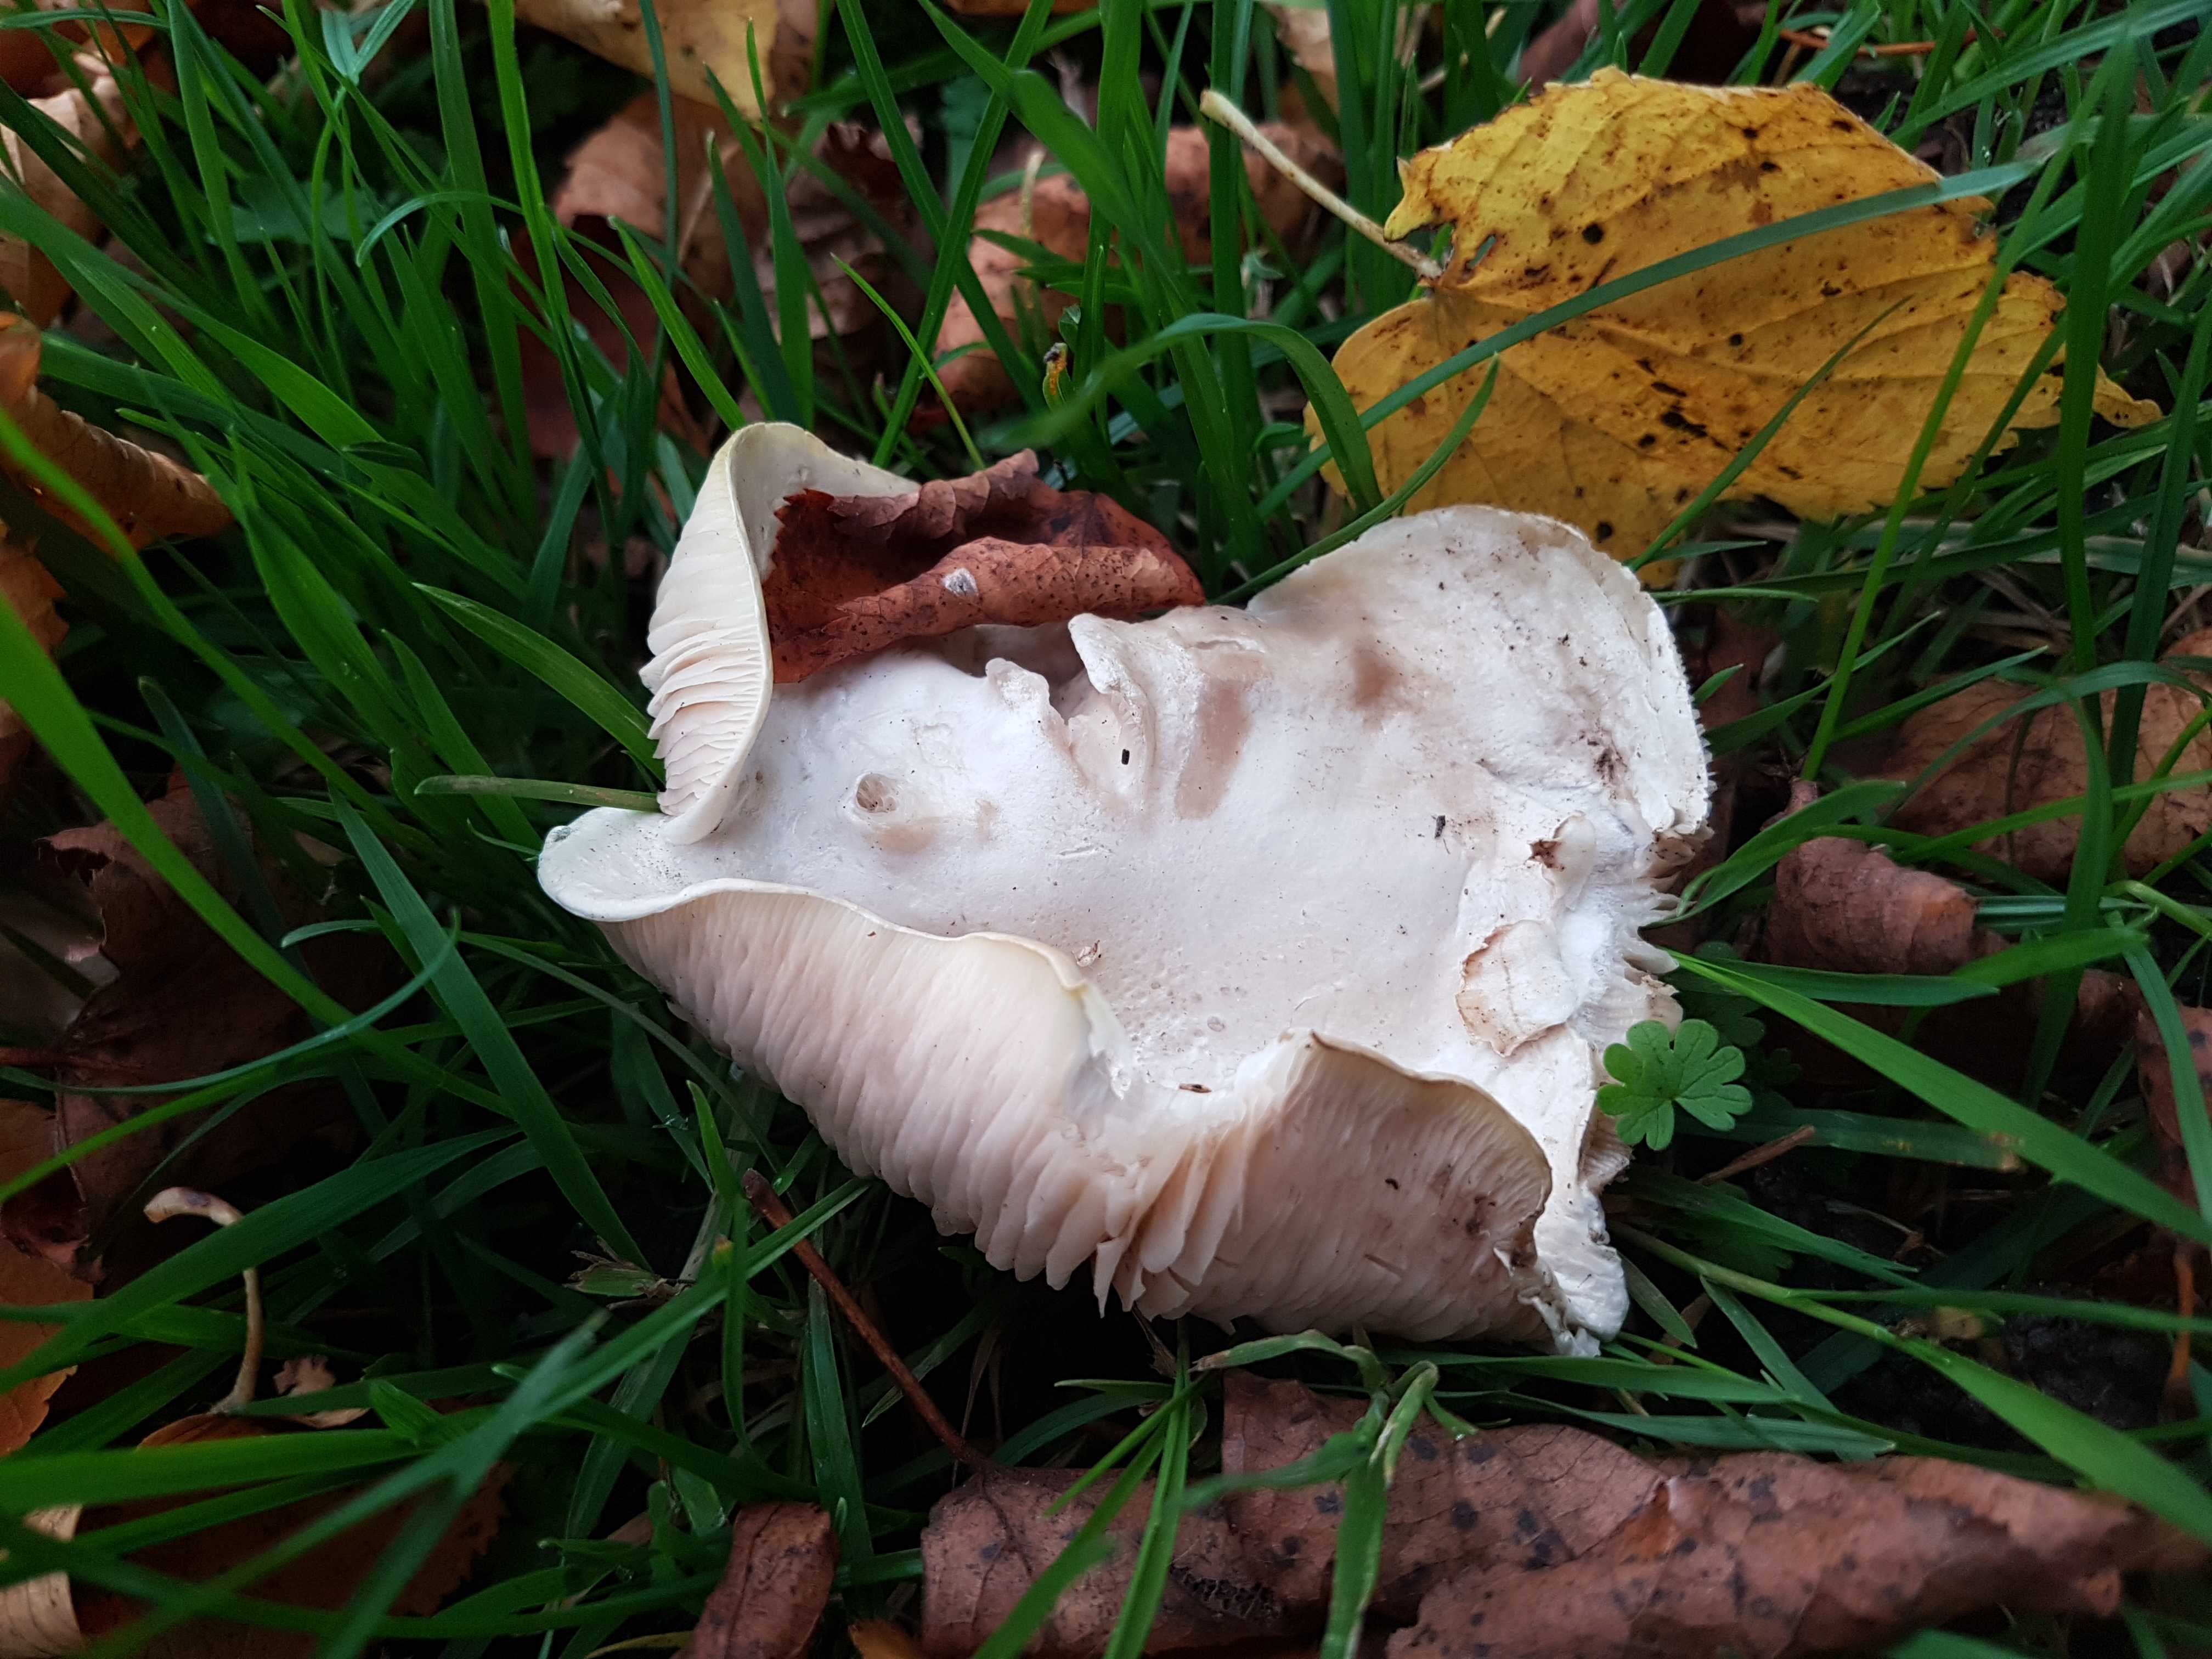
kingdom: Fungi
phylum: Basidiomycota
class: Agaricomycetes
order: Agaricales
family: Entolomataceae
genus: Clitopilus
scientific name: Clitopilus prunulus
